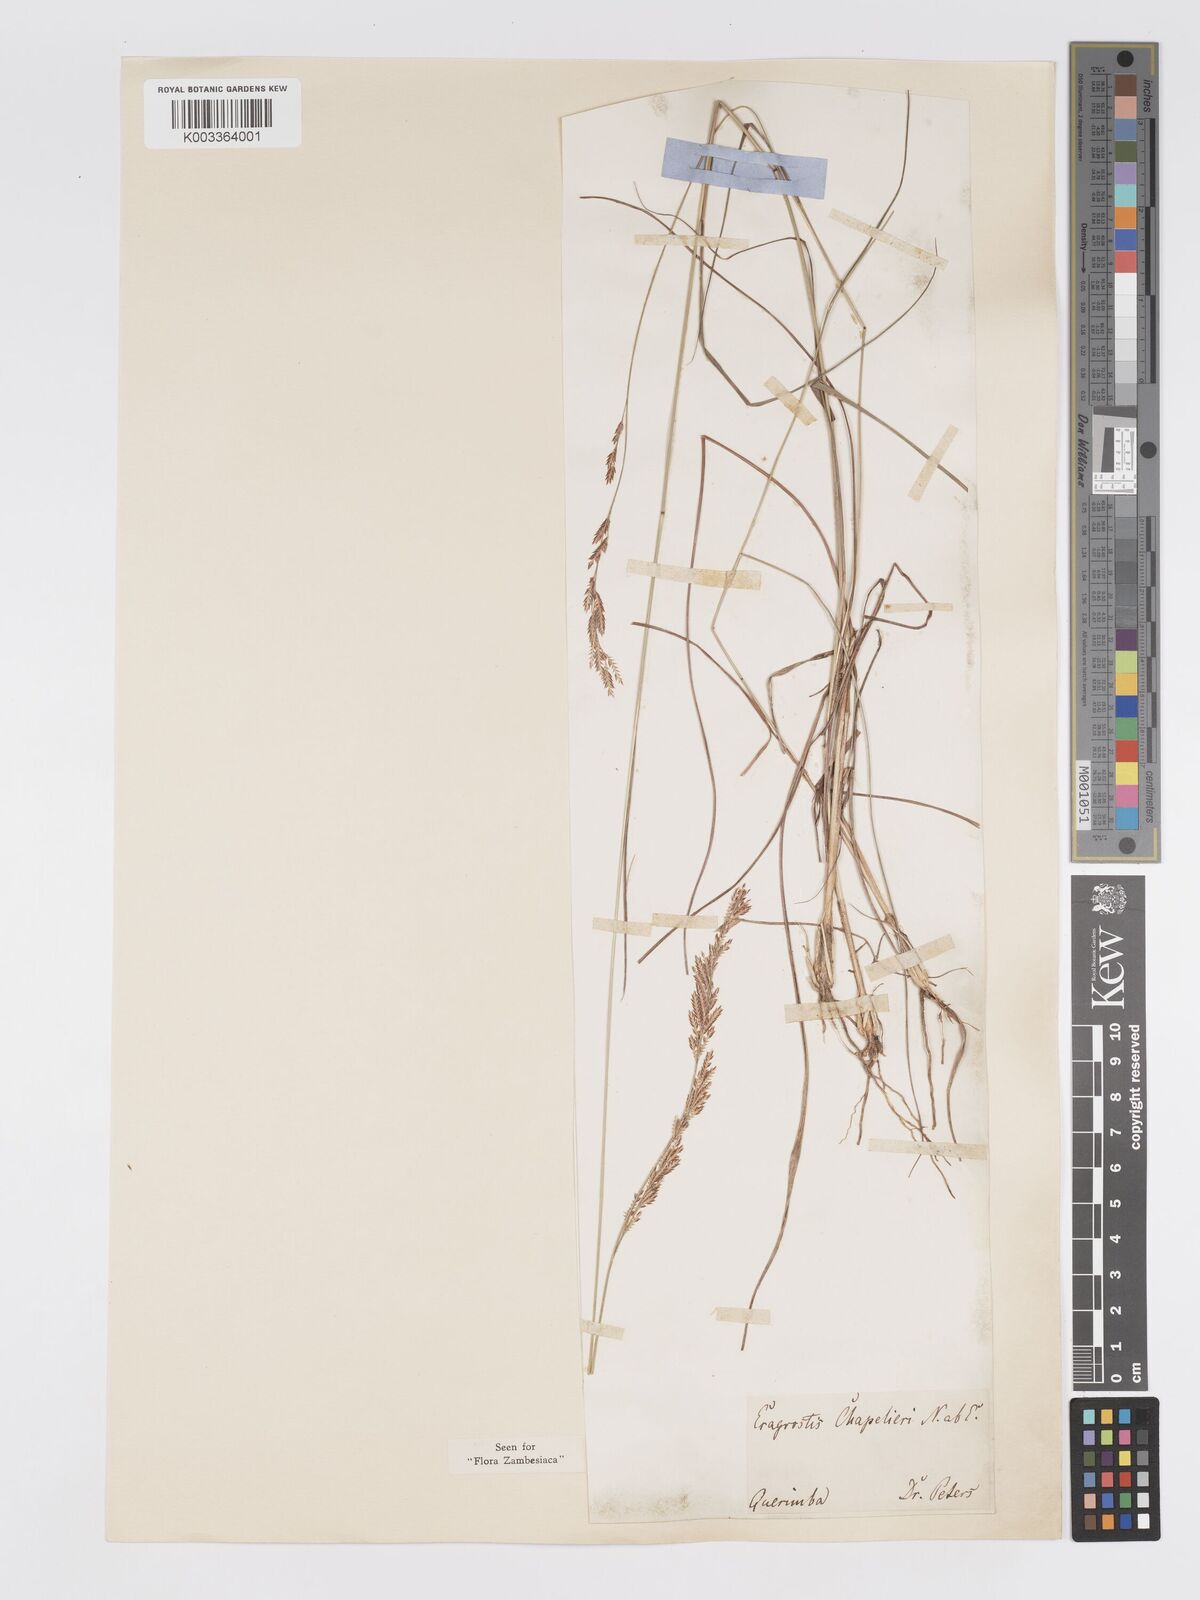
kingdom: Plantae
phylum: Tracheophyta
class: Liliopsida
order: Poales
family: Poaceae
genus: Eragrostis
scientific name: Eragrostis chapelieri
